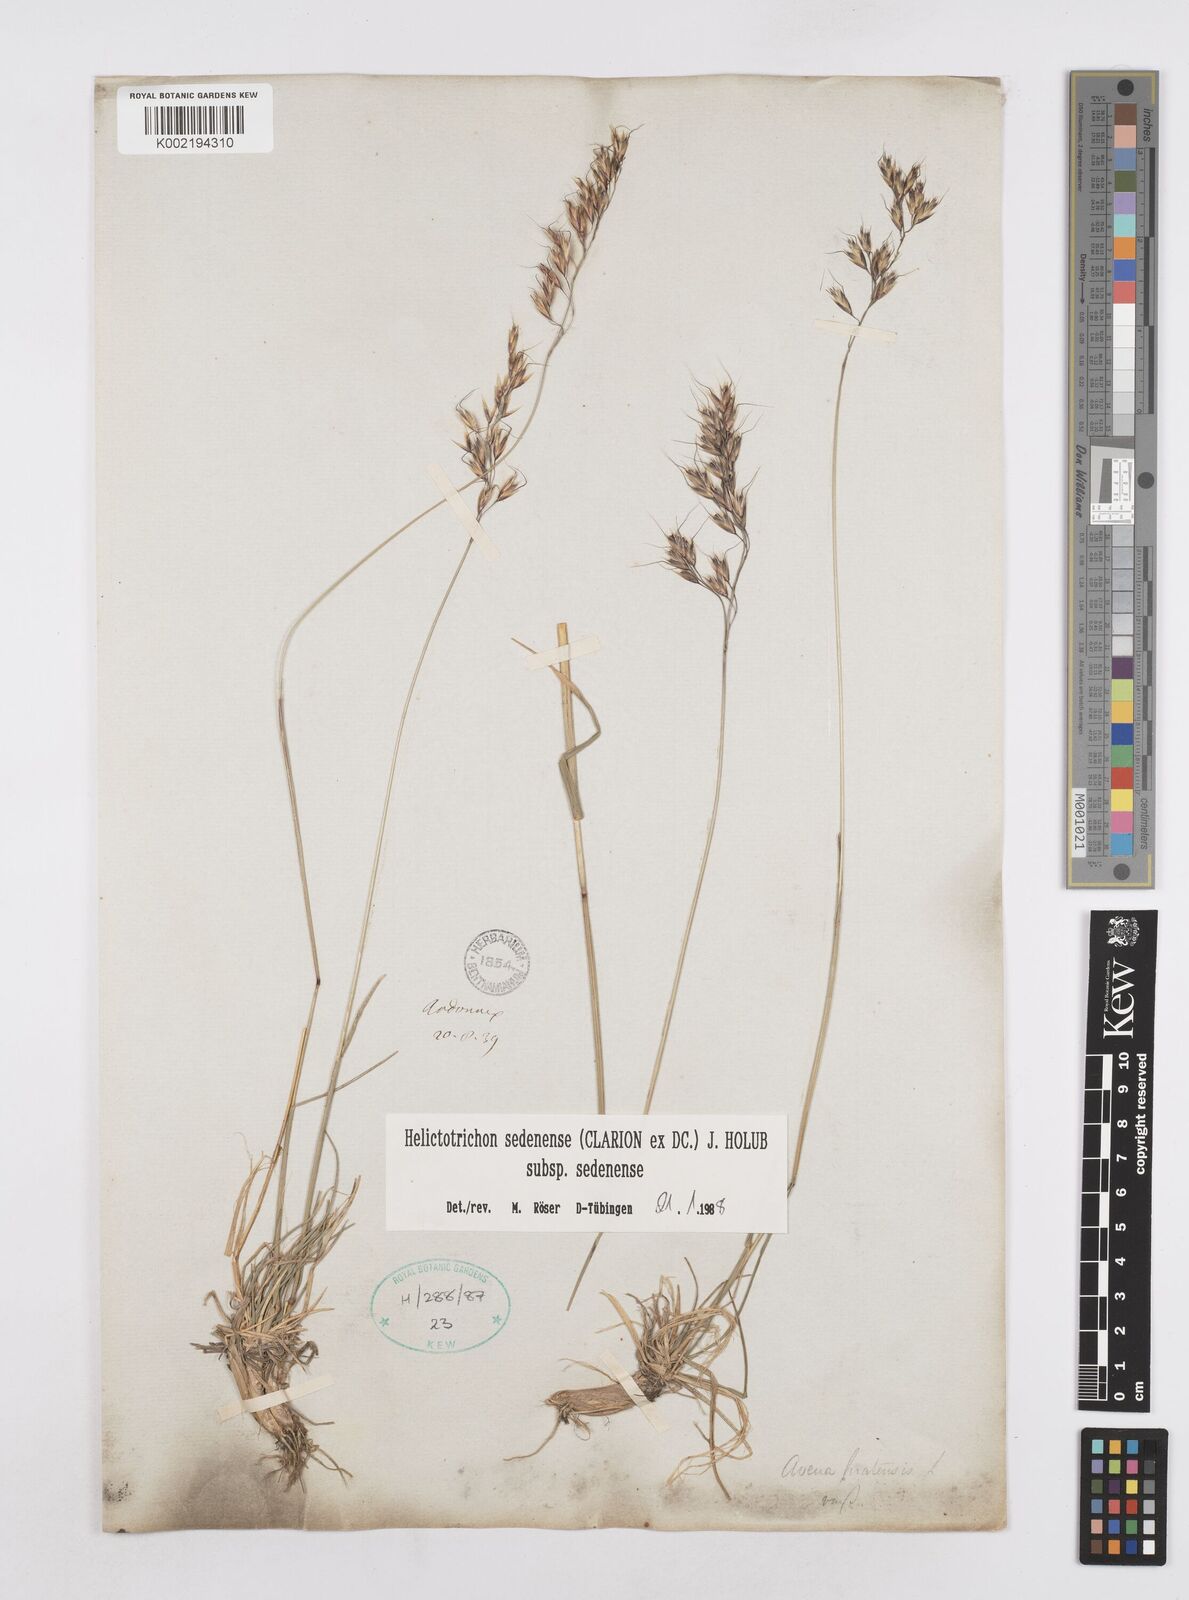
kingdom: Plantae
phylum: Tracheophyta
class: Liliopsida
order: Poales
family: Poaceae
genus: Helictotrichon
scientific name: Helictotrichon sedenense
